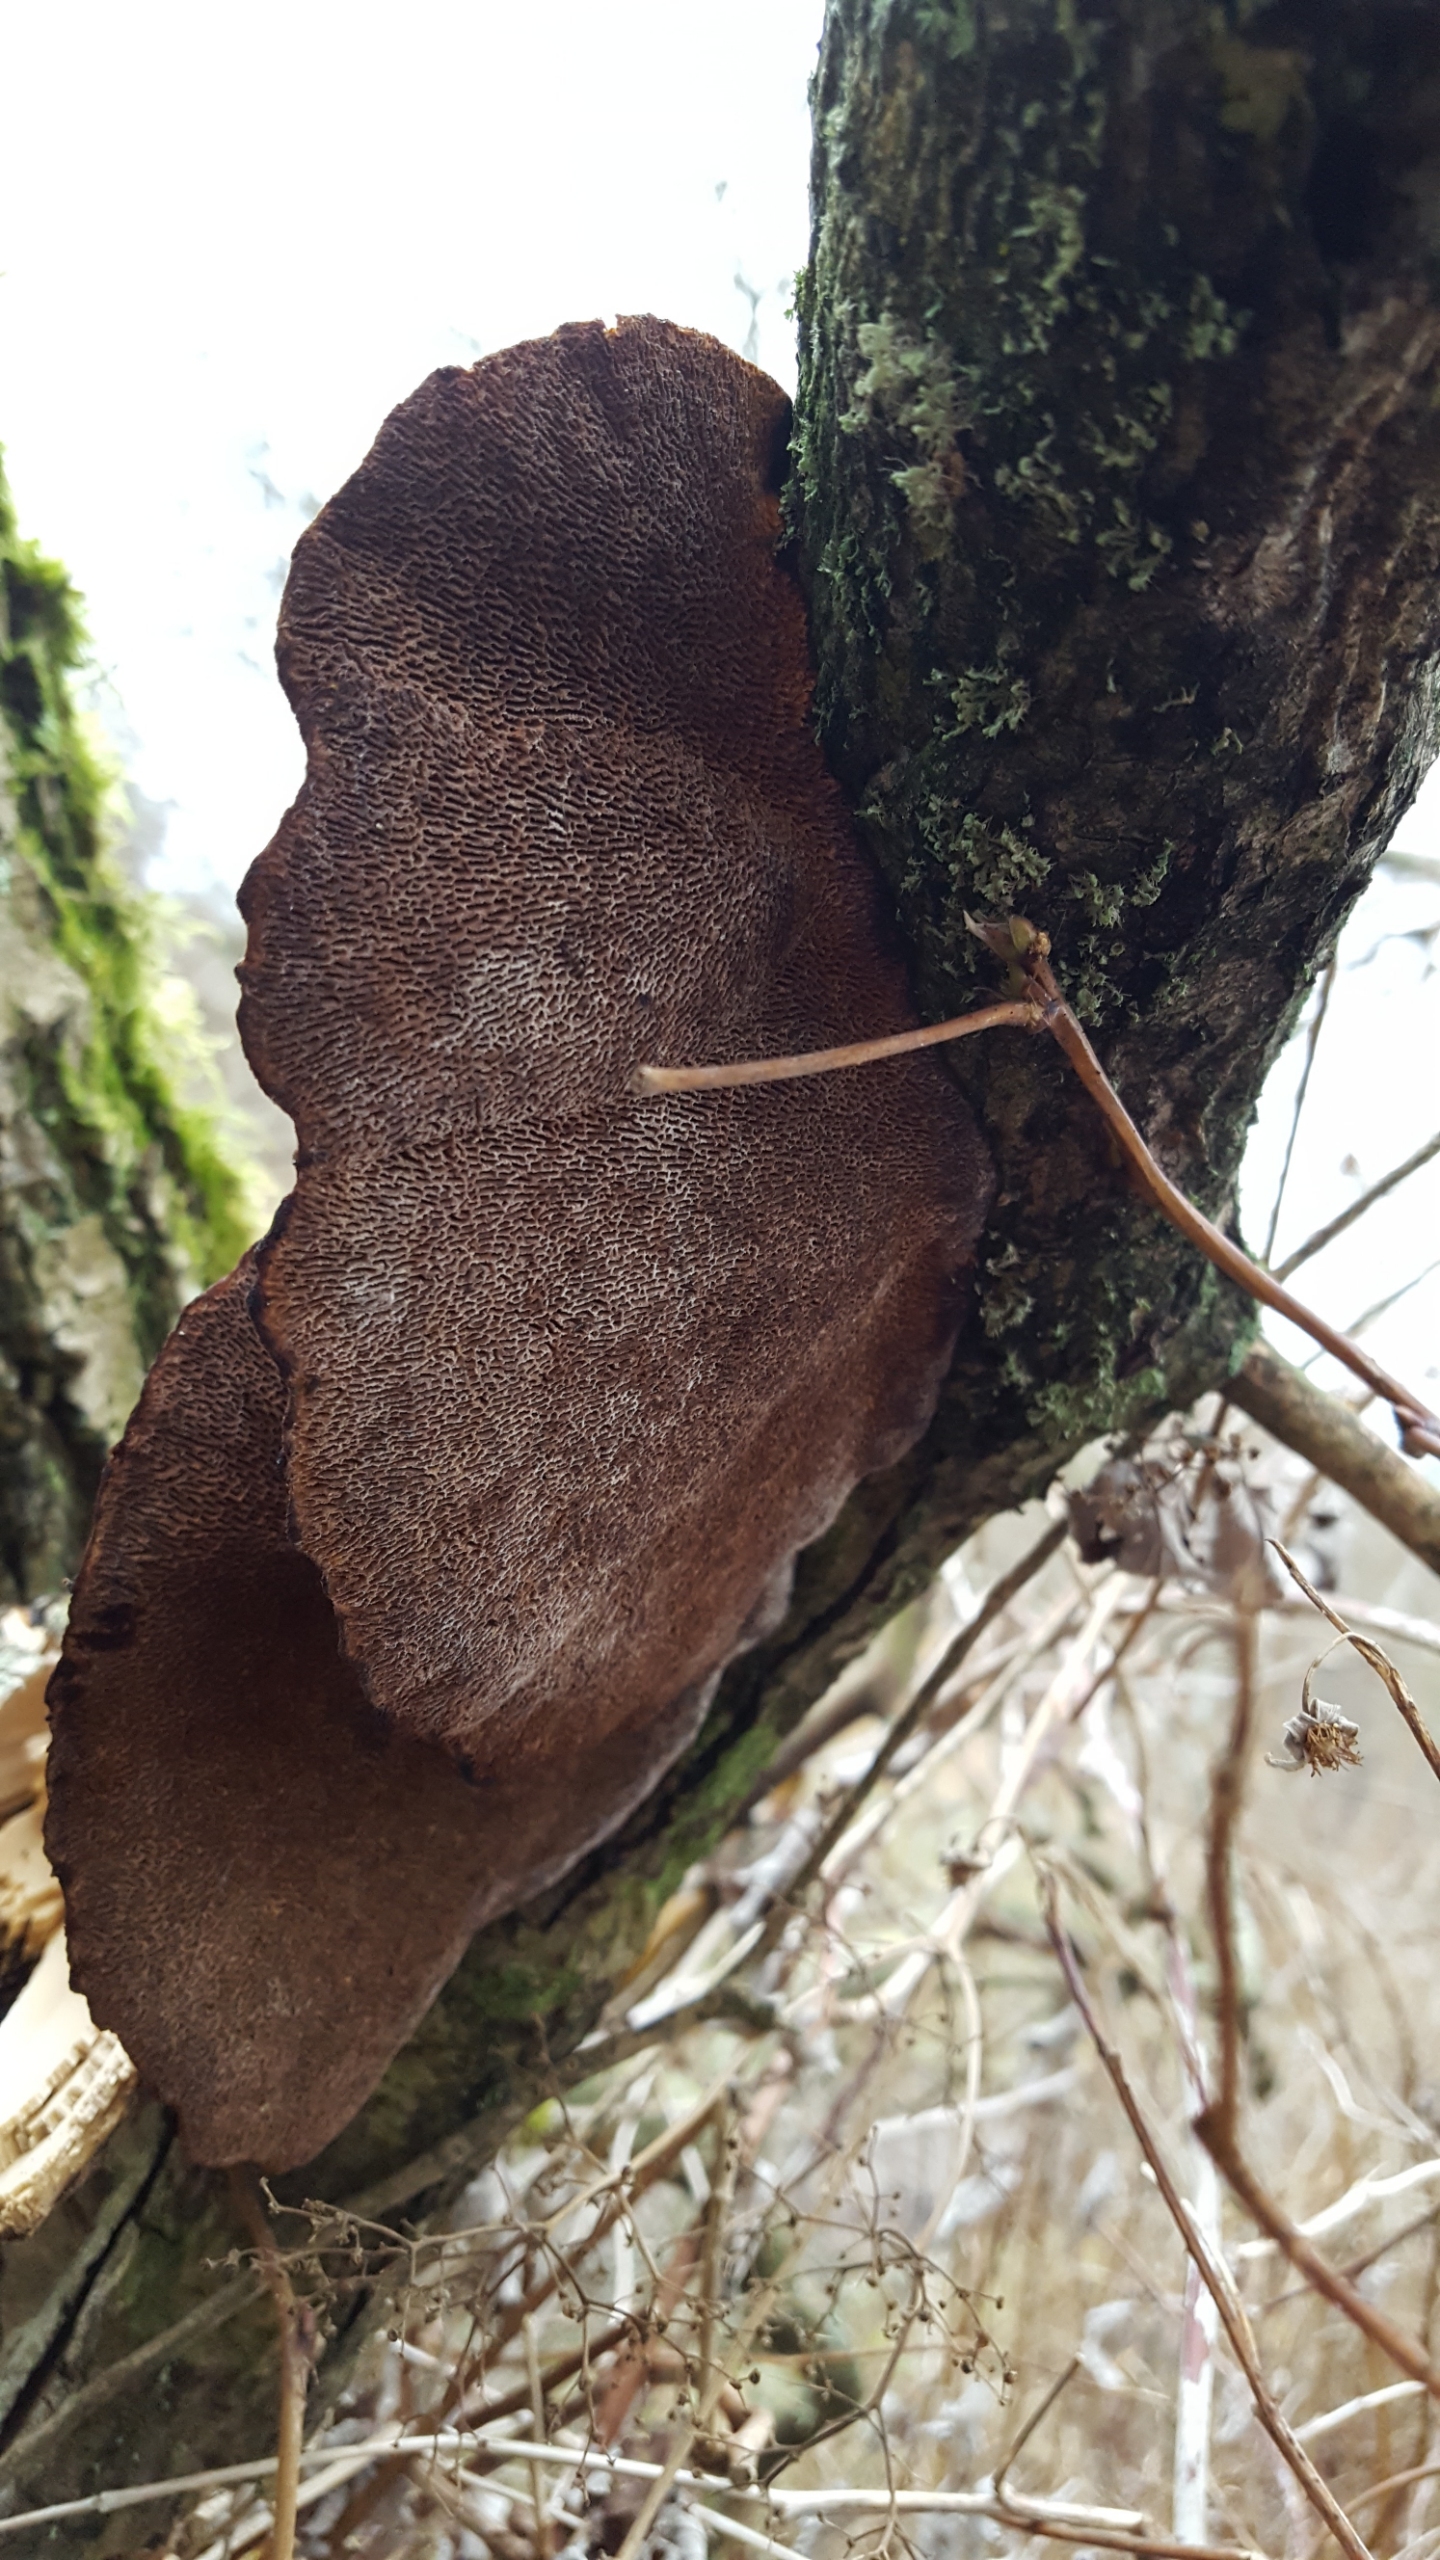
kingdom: Fungi
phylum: Basidiomycota
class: Agaricomycetes
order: Polyporales
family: Polyporaceae
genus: Daedaleopsis
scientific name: Daedaleopsis confragosa
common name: Rødmende læderporesvamp
